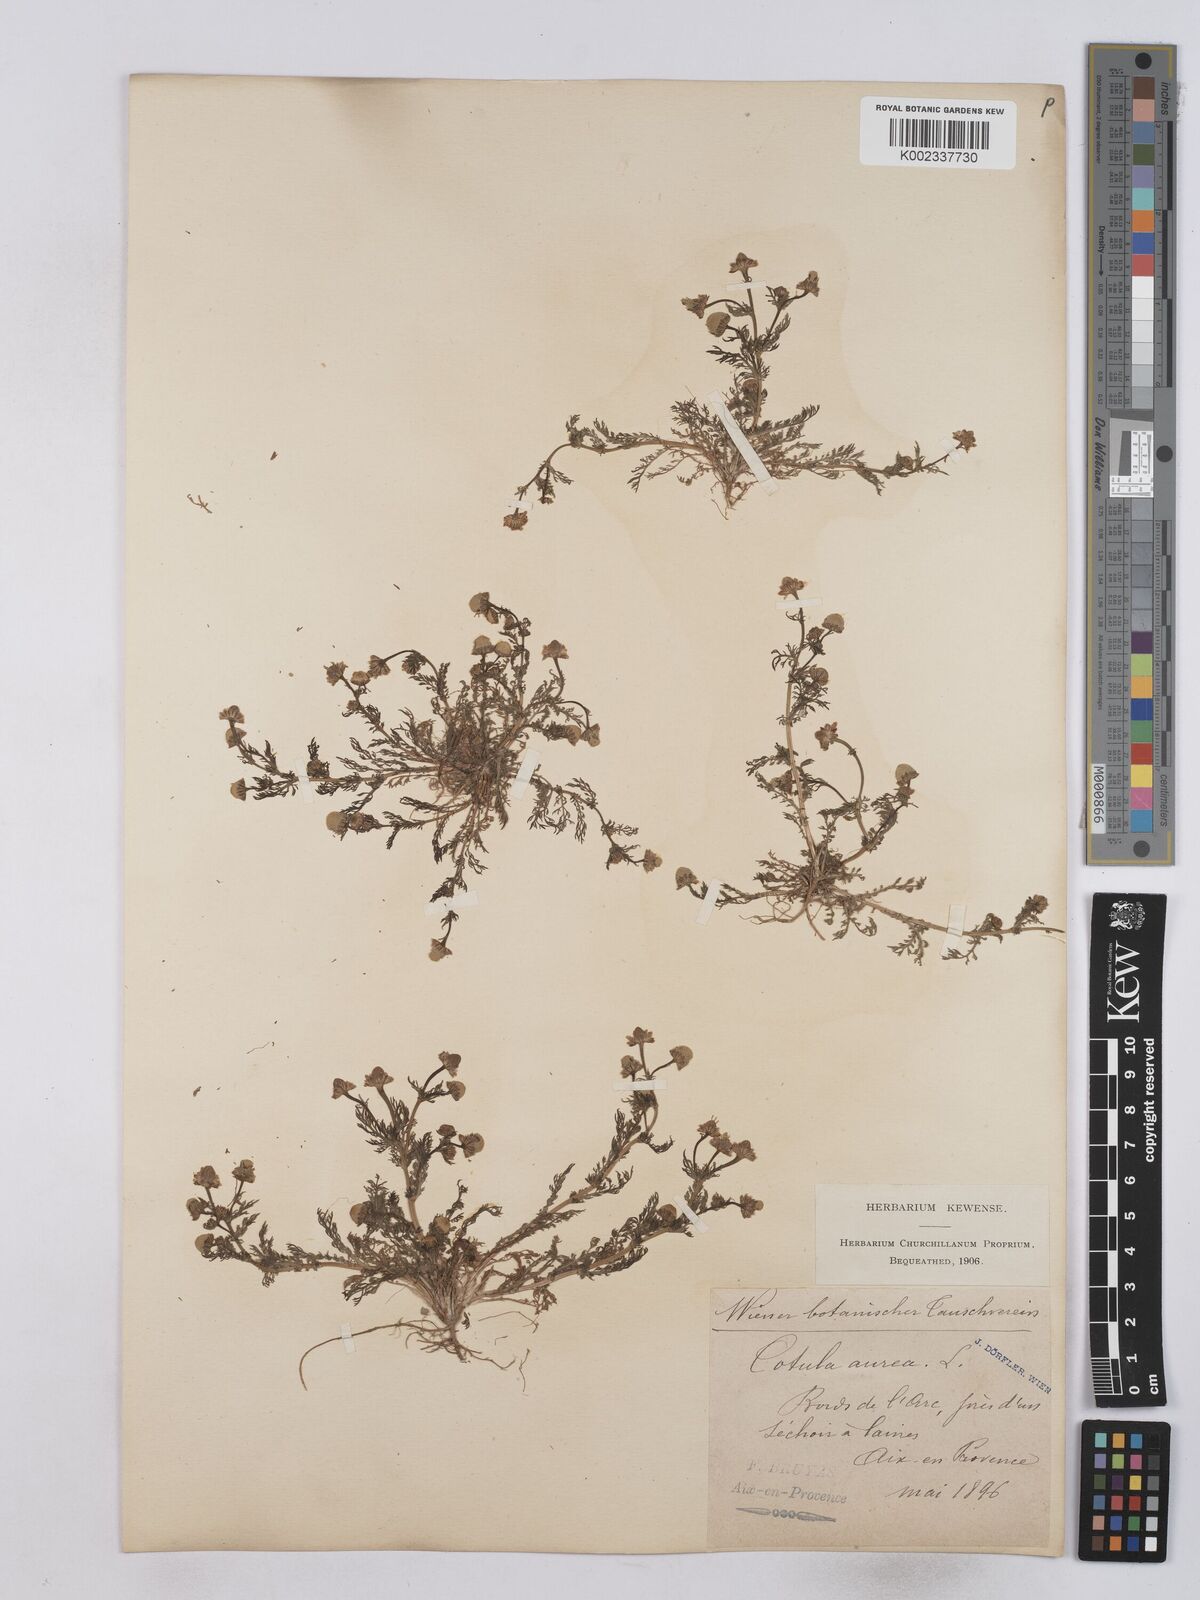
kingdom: Plantae
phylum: Tracheophyta
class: Magnoliopsida
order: Asterales
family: Asteraceae
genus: Matricaria
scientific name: Matricaria aurea
